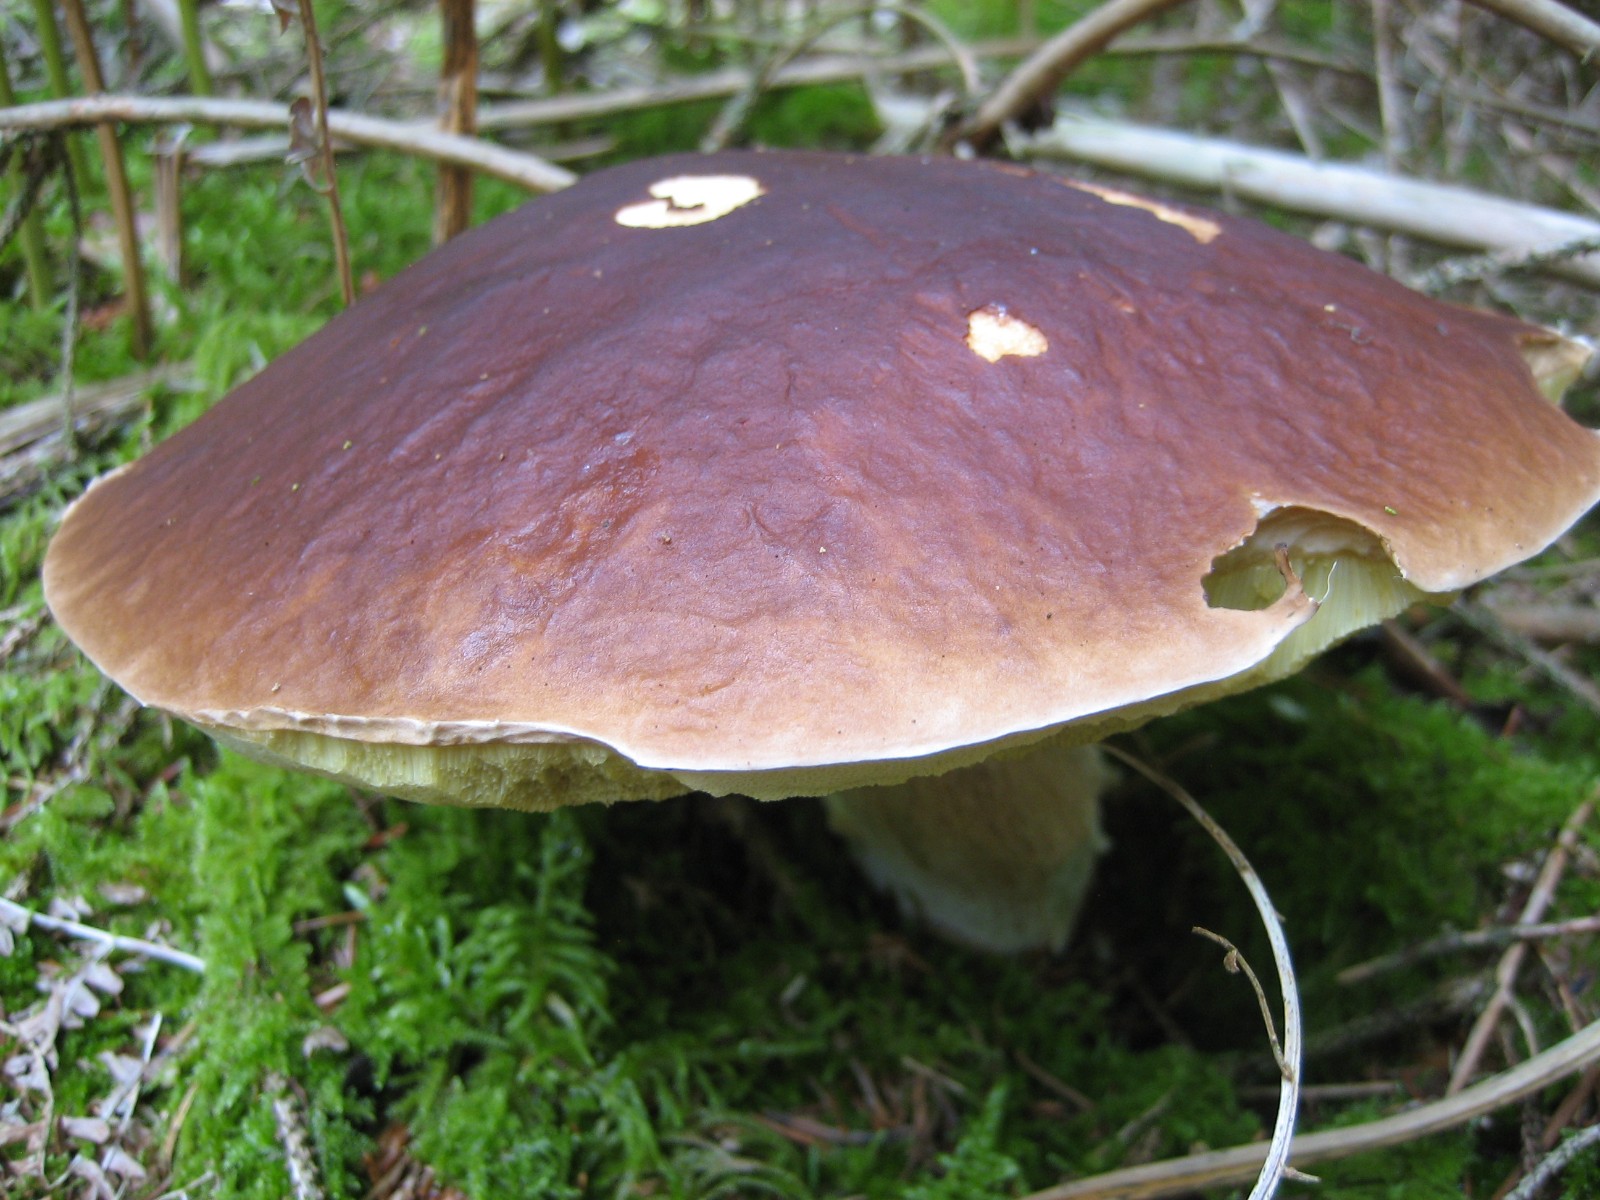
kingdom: Fungi
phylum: Basidiomycota
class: Agaricomycetes
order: Boletales
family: Boletaceae
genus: Boletus
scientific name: Boletus edulis
